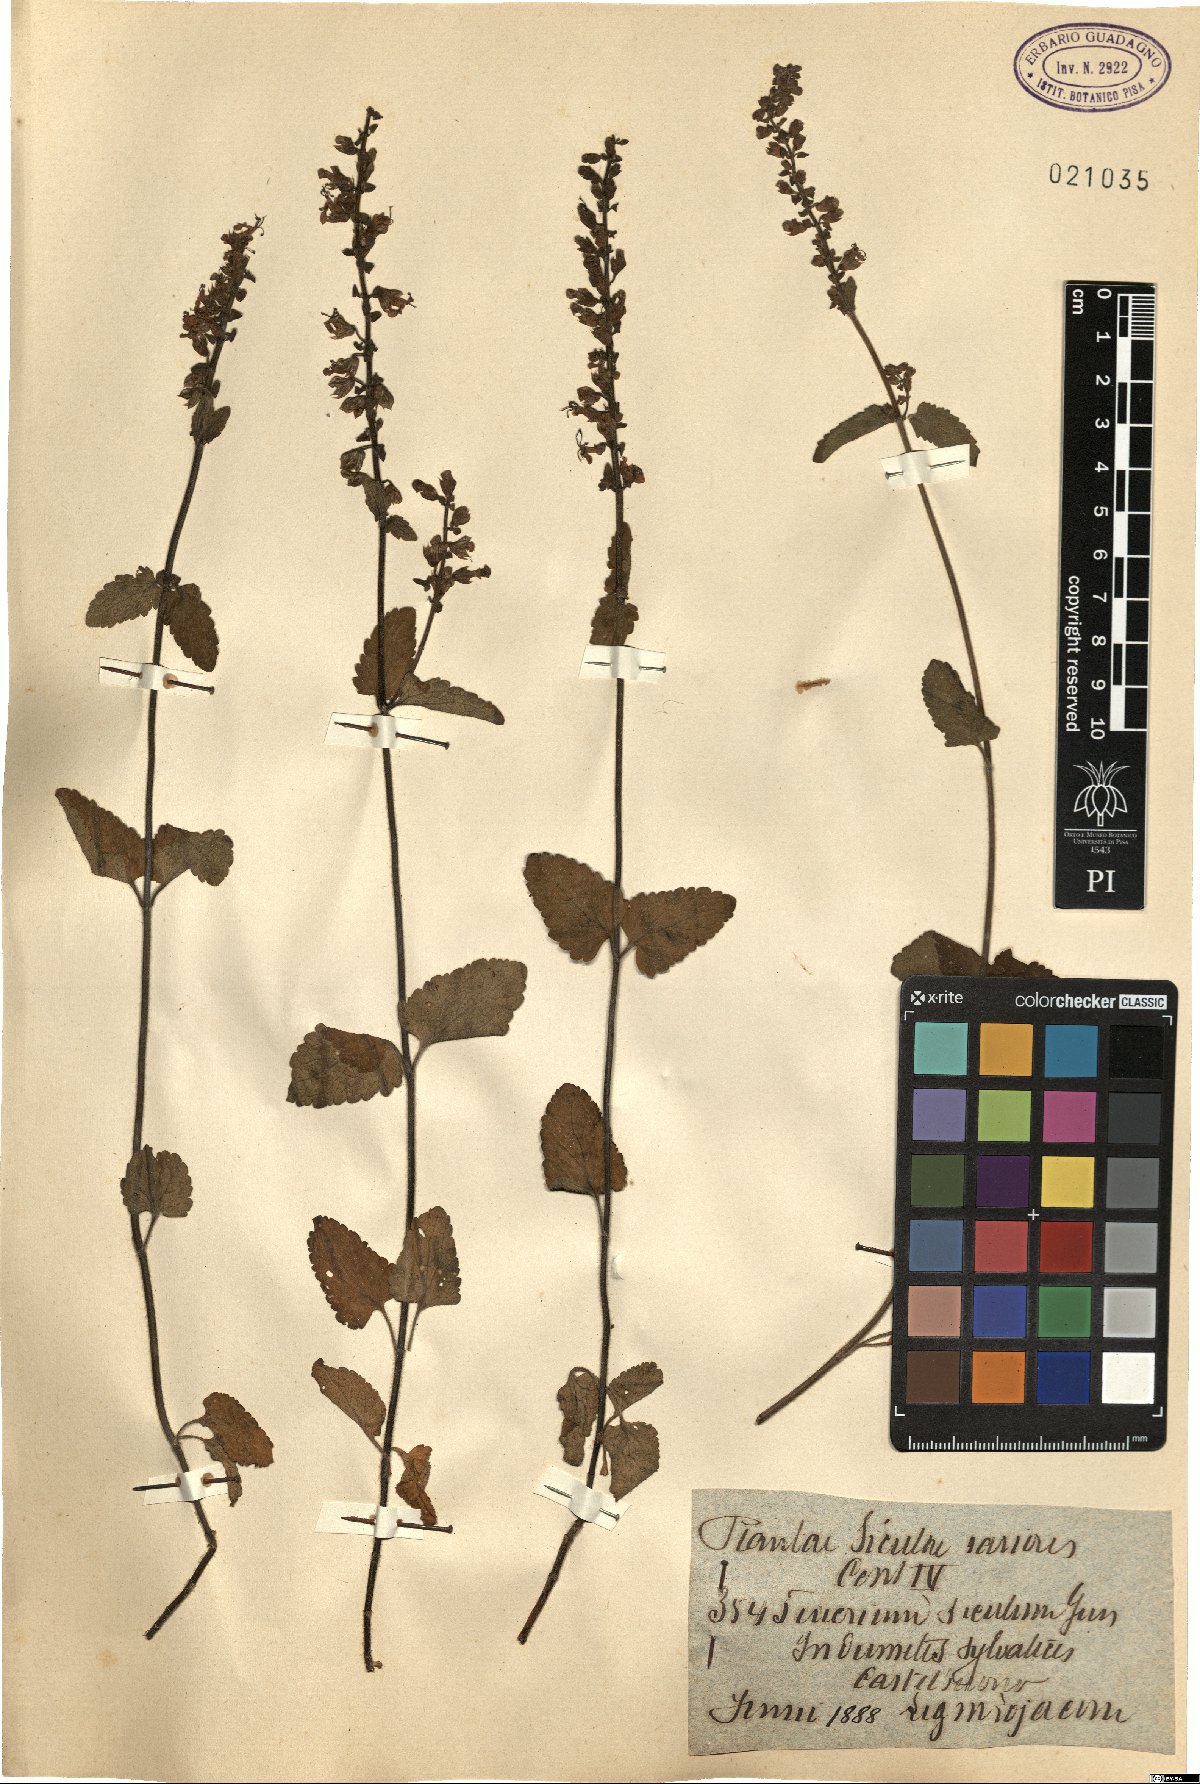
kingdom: Plantae
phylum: Tracheophyta
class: Magnoliopsida
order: Lamiales
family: Lamiaceae
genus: Teucrium
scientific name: Teucrium siculum
